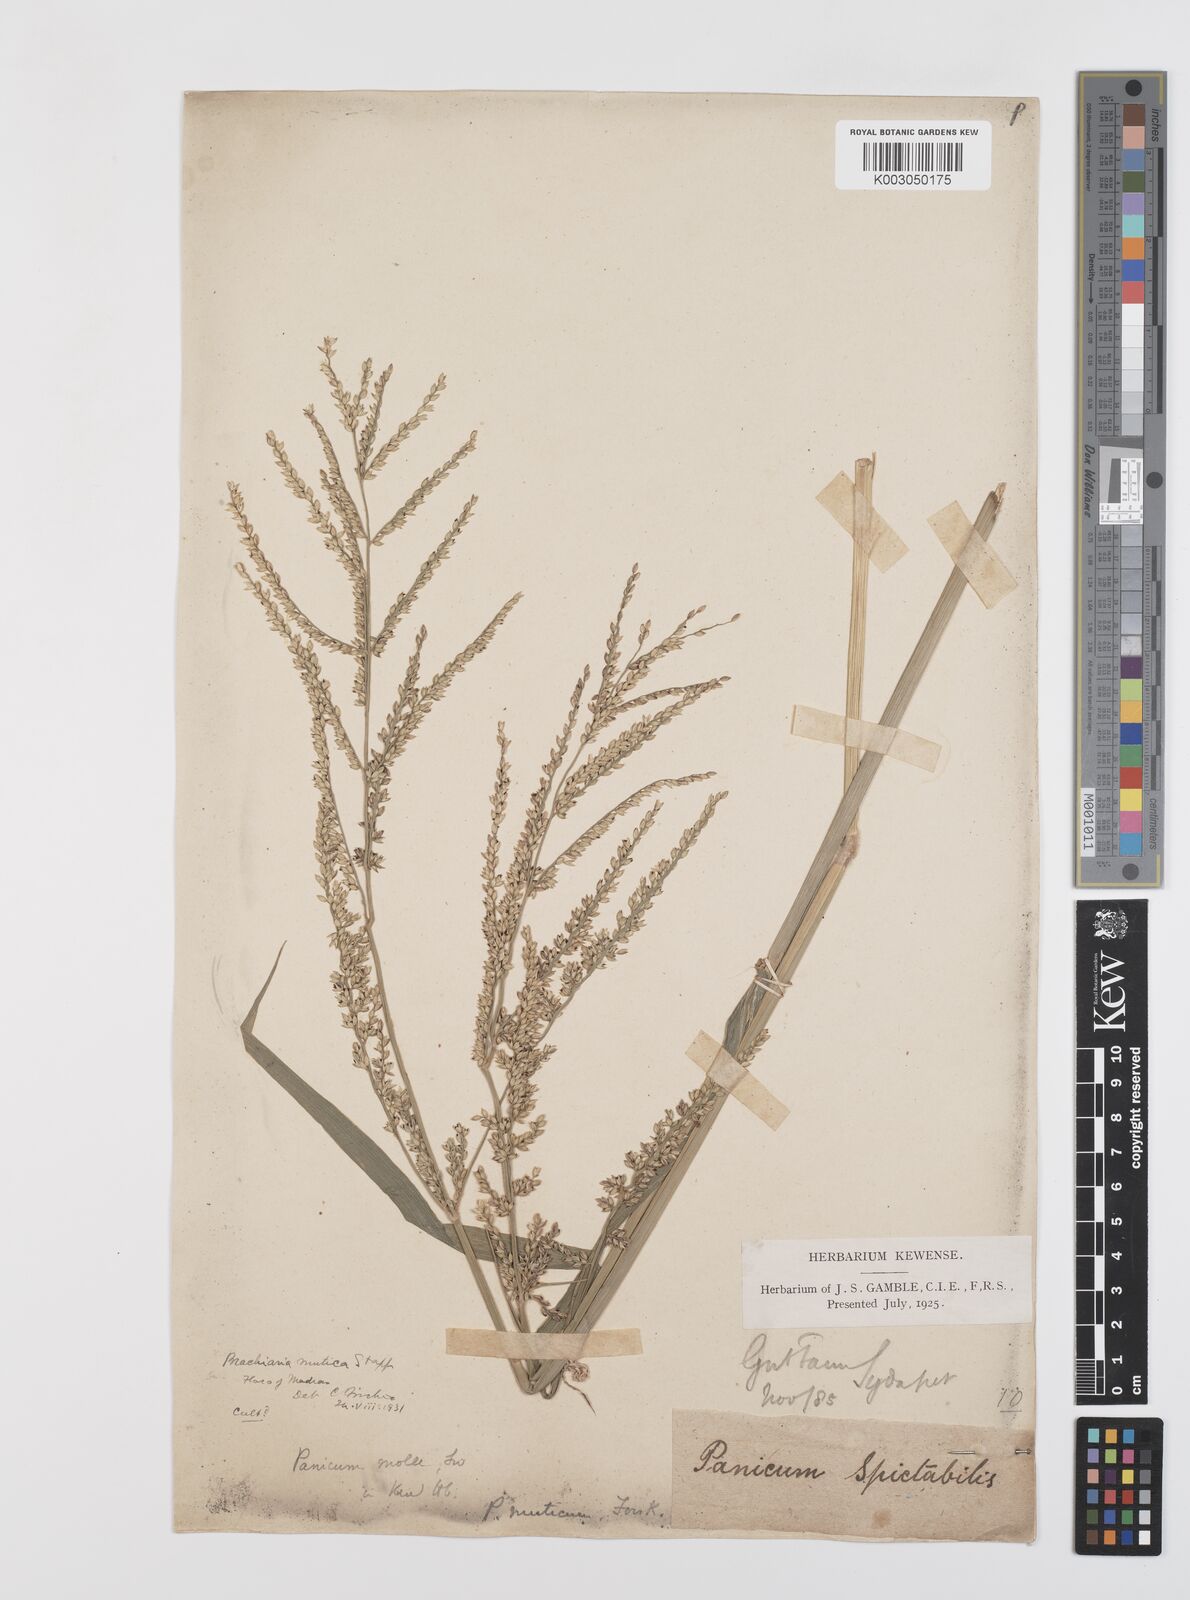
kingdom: Plantae
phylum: Tracheophyta
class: Liliopsida
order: Poales
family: Poaceae
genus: Urochloa
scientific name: Urochloa mutica
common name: Para grass
